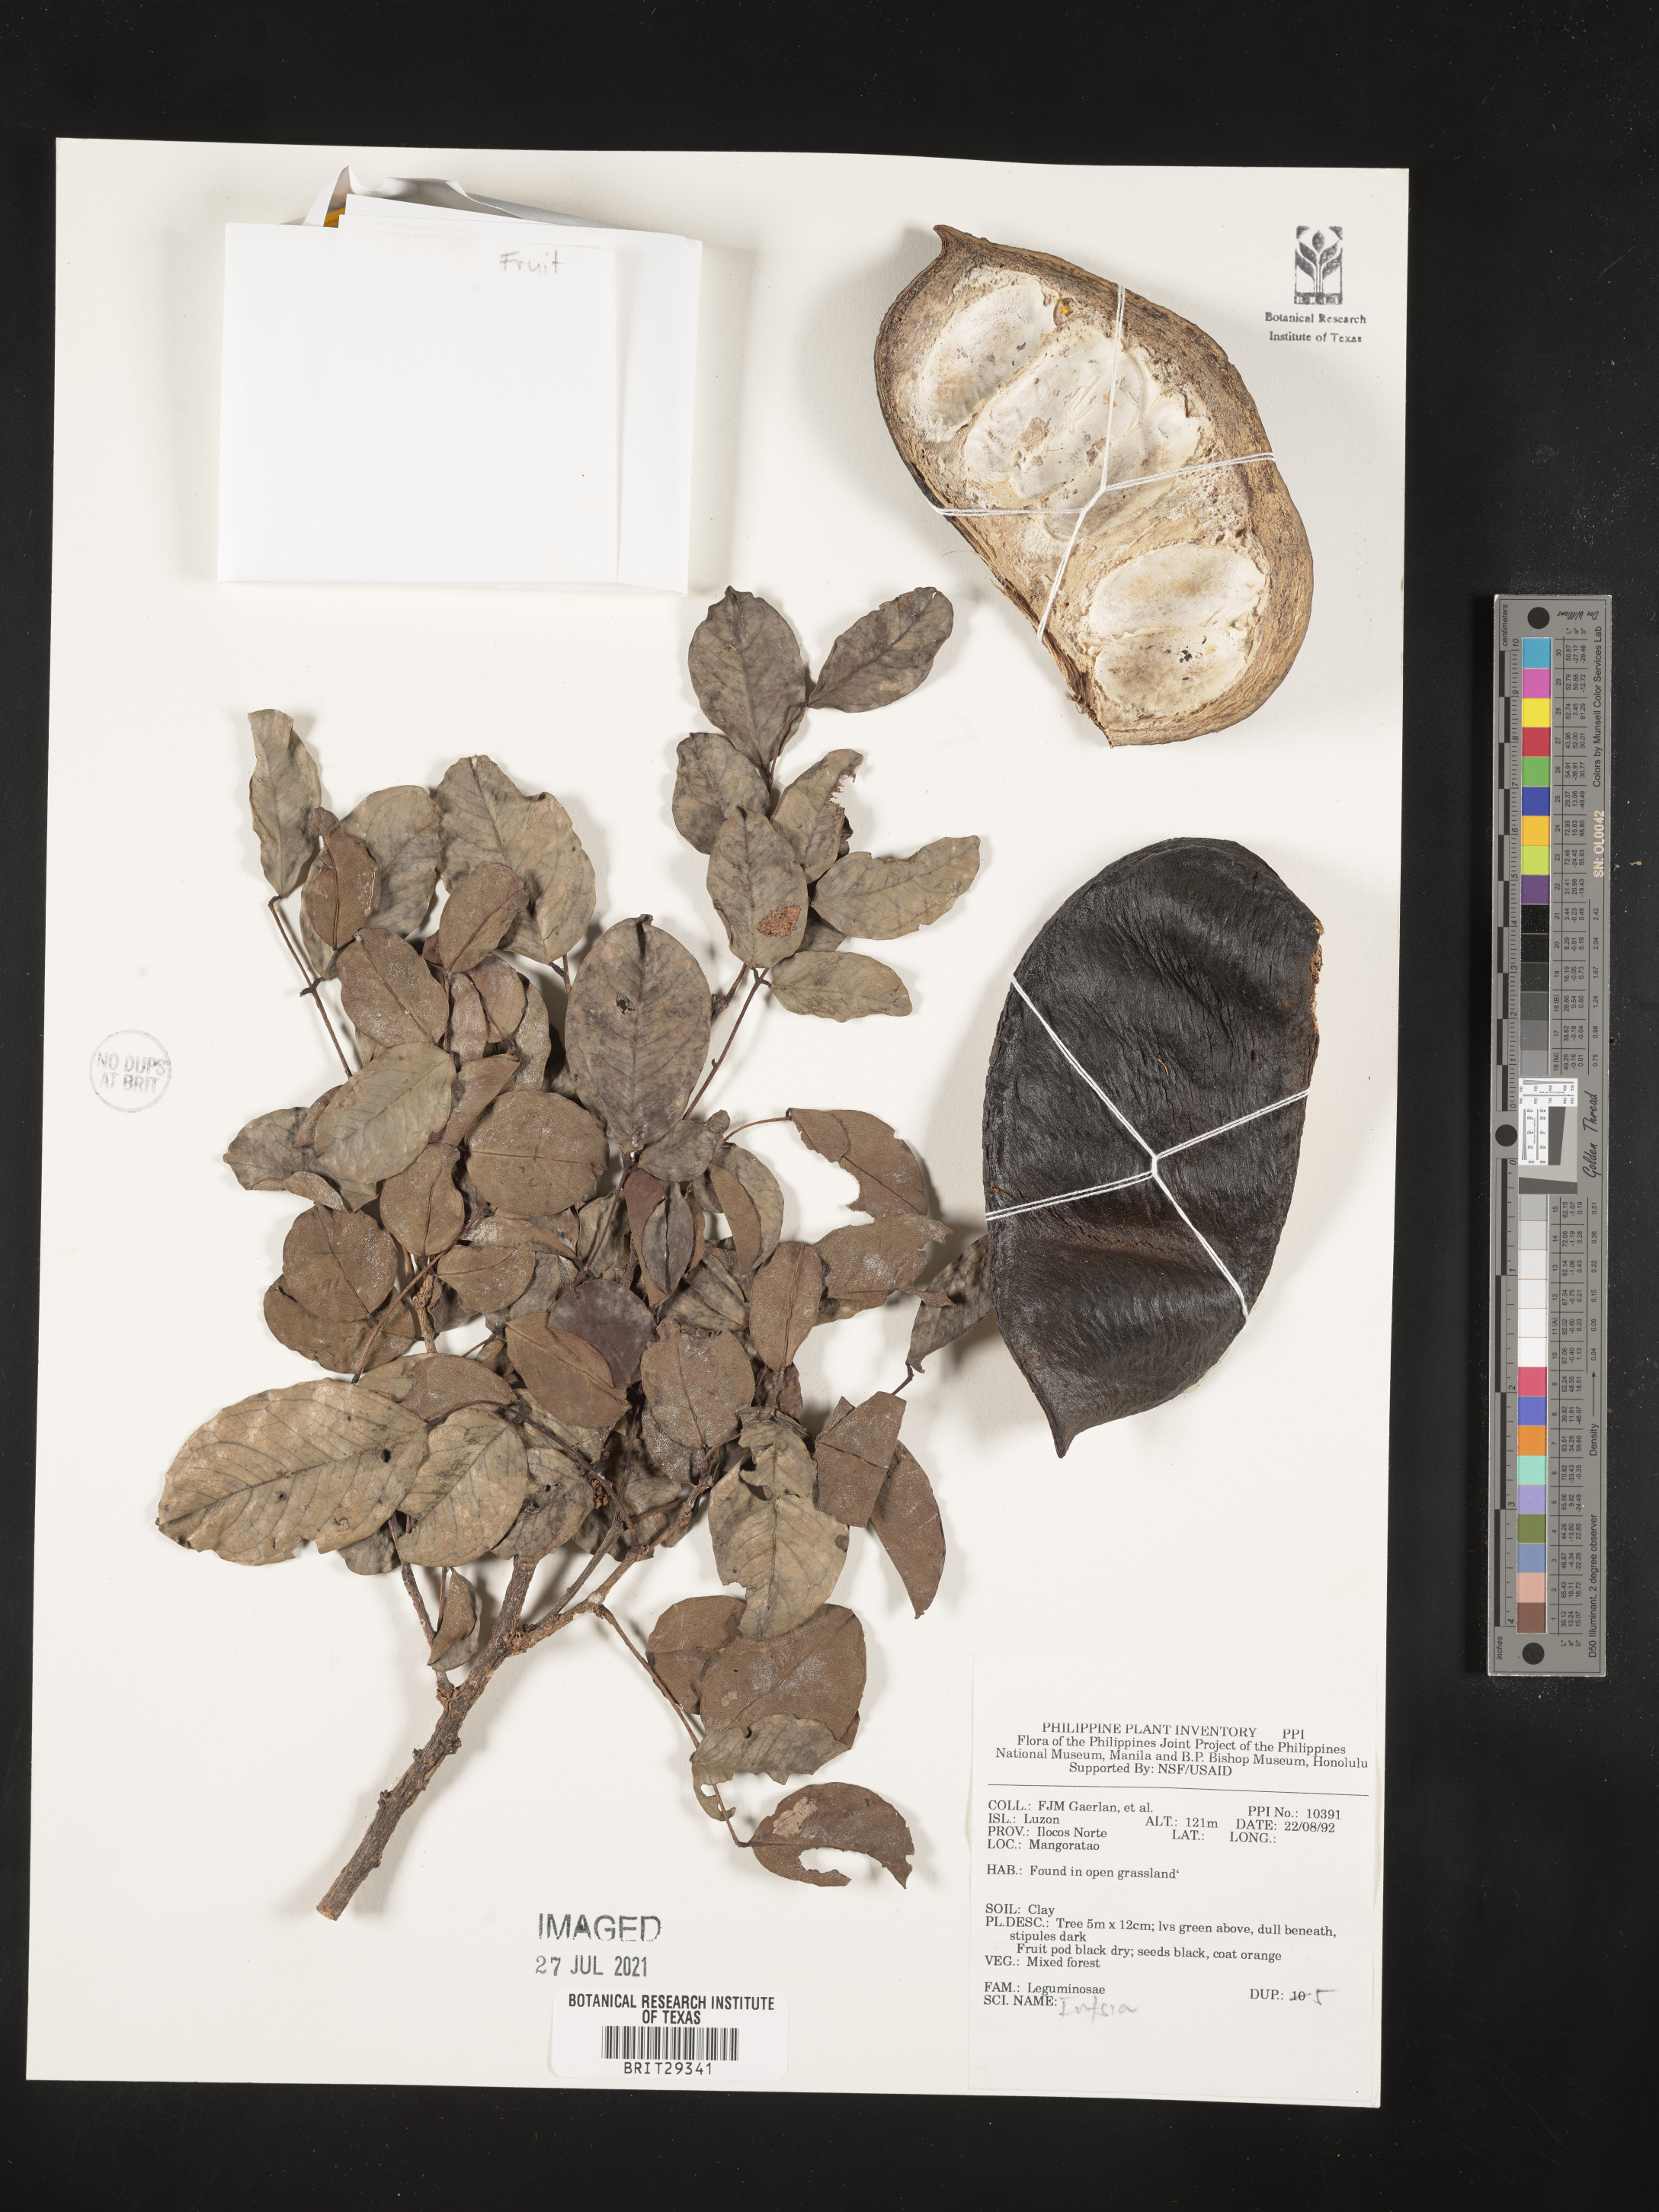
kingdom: Plantae
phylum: Tracheophyta
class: Magnoliopsida
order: Fabales
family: Fabaceae
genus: Intsia
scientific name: Intsia
